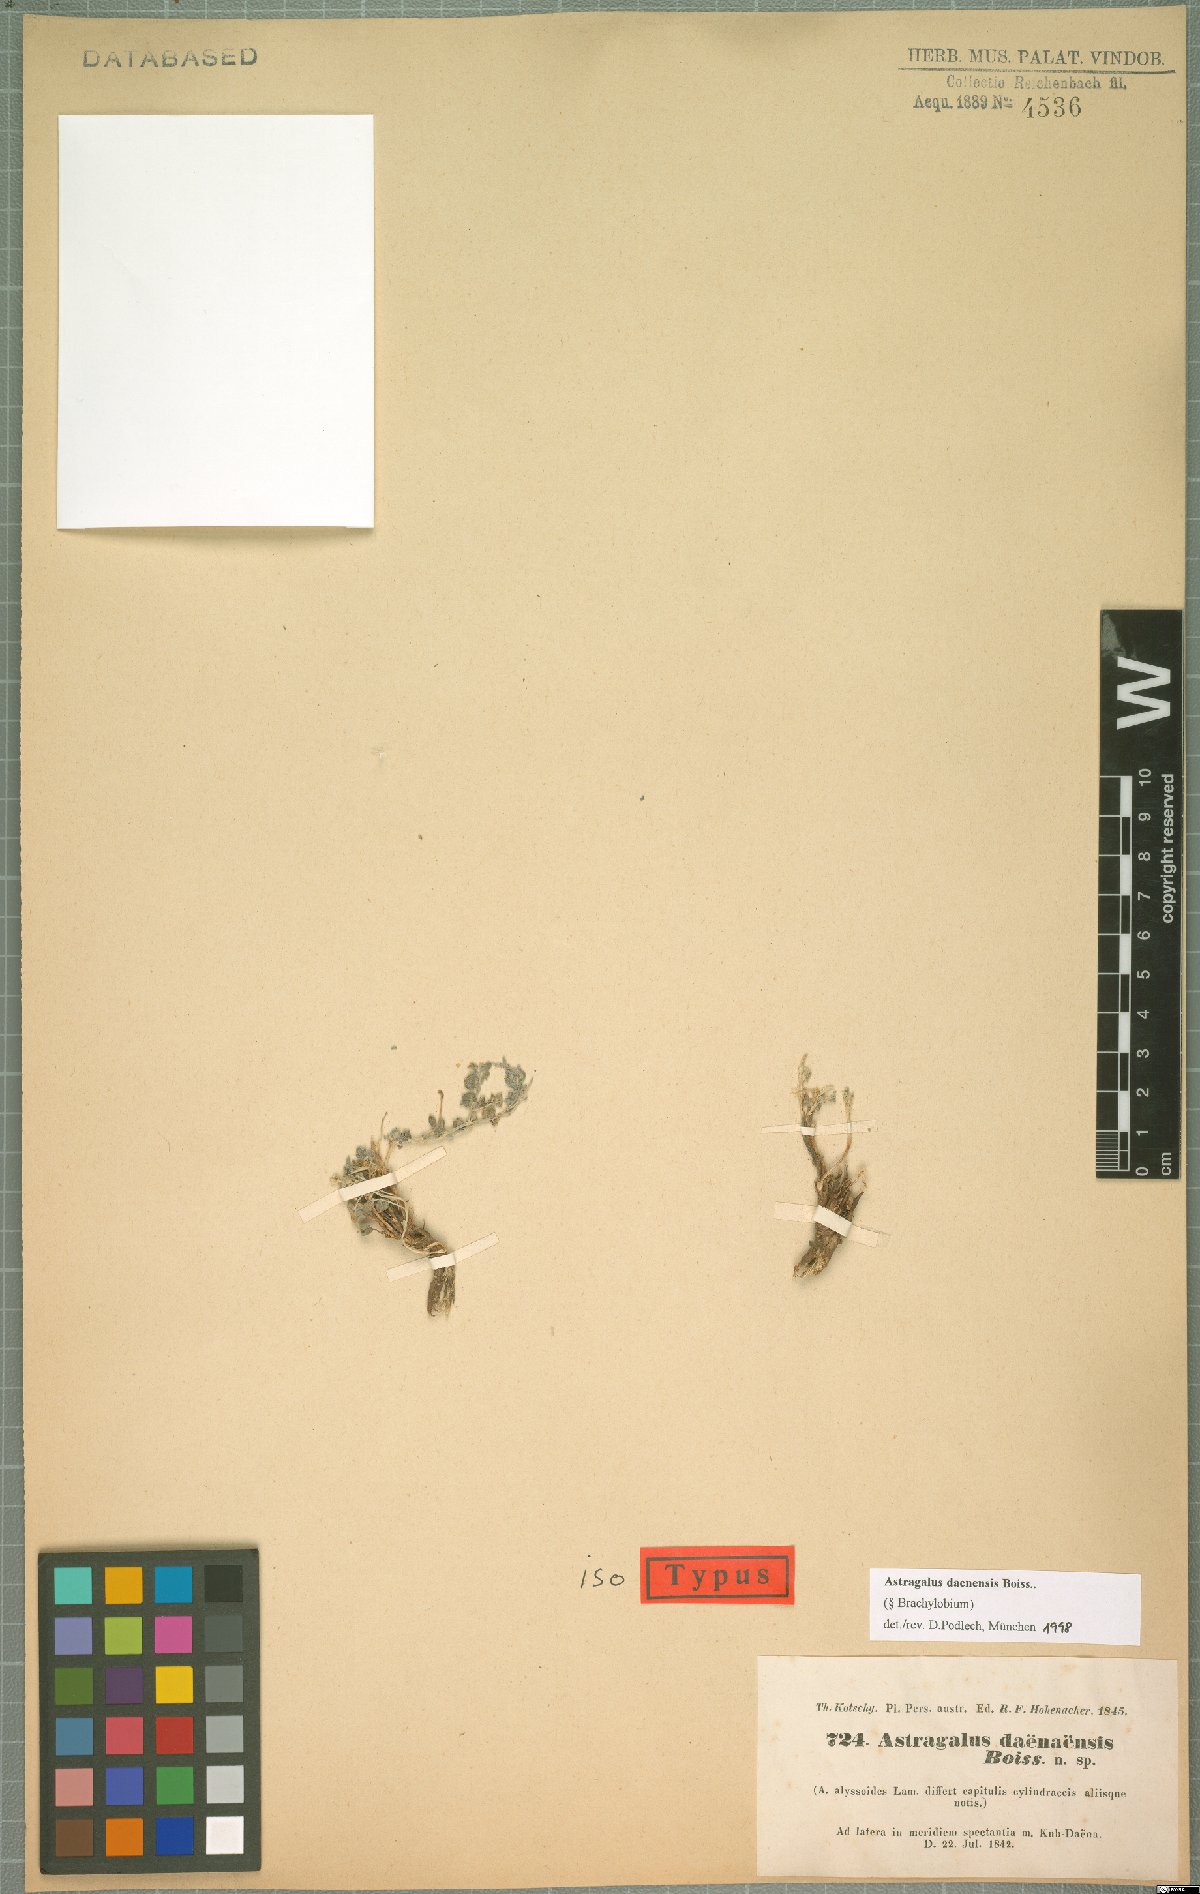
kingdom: Plantae
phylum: Tracheophyta
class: Magnoliopsida
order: Fabales
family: Fabaceae
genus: Astragalus
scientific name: Astragalus daenensis
